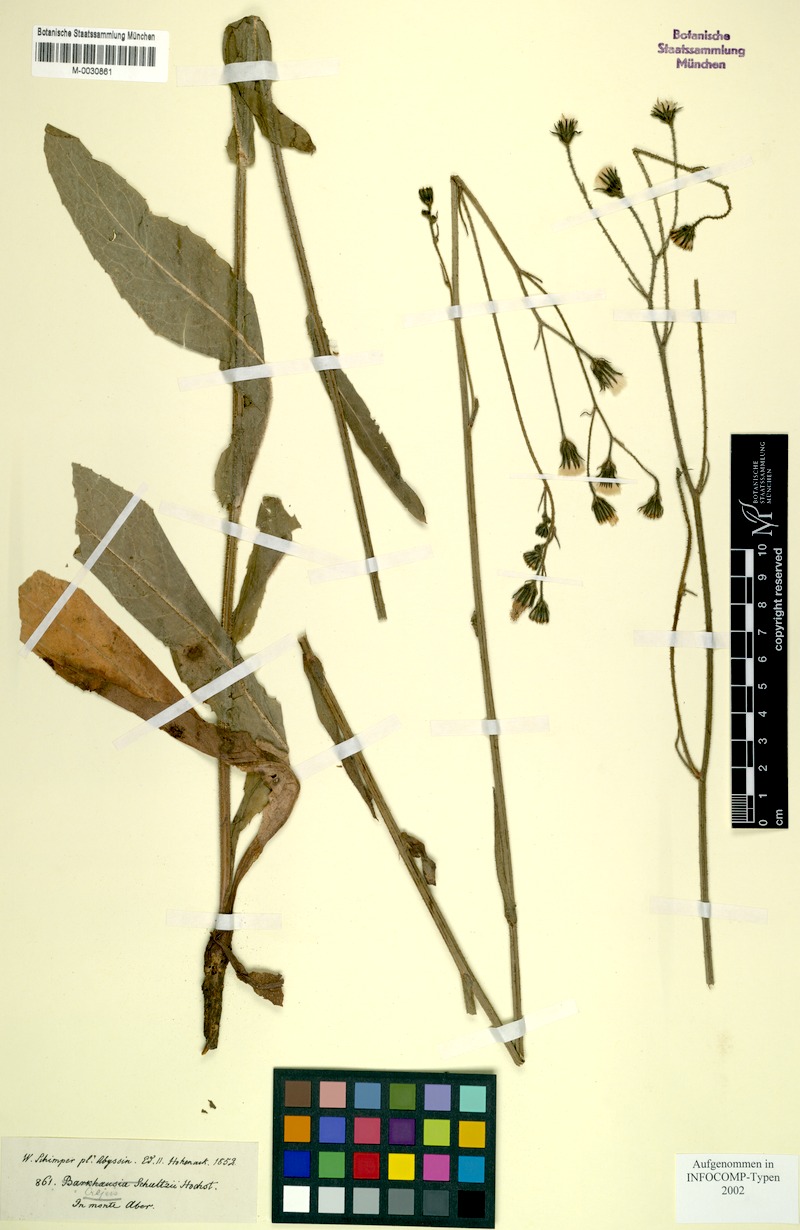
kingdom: Plantae
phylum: Tracheophyta
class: Magnoliopsida
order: Asterales
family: Asteraceae
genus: Crepis
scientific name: Crepis schultzii
